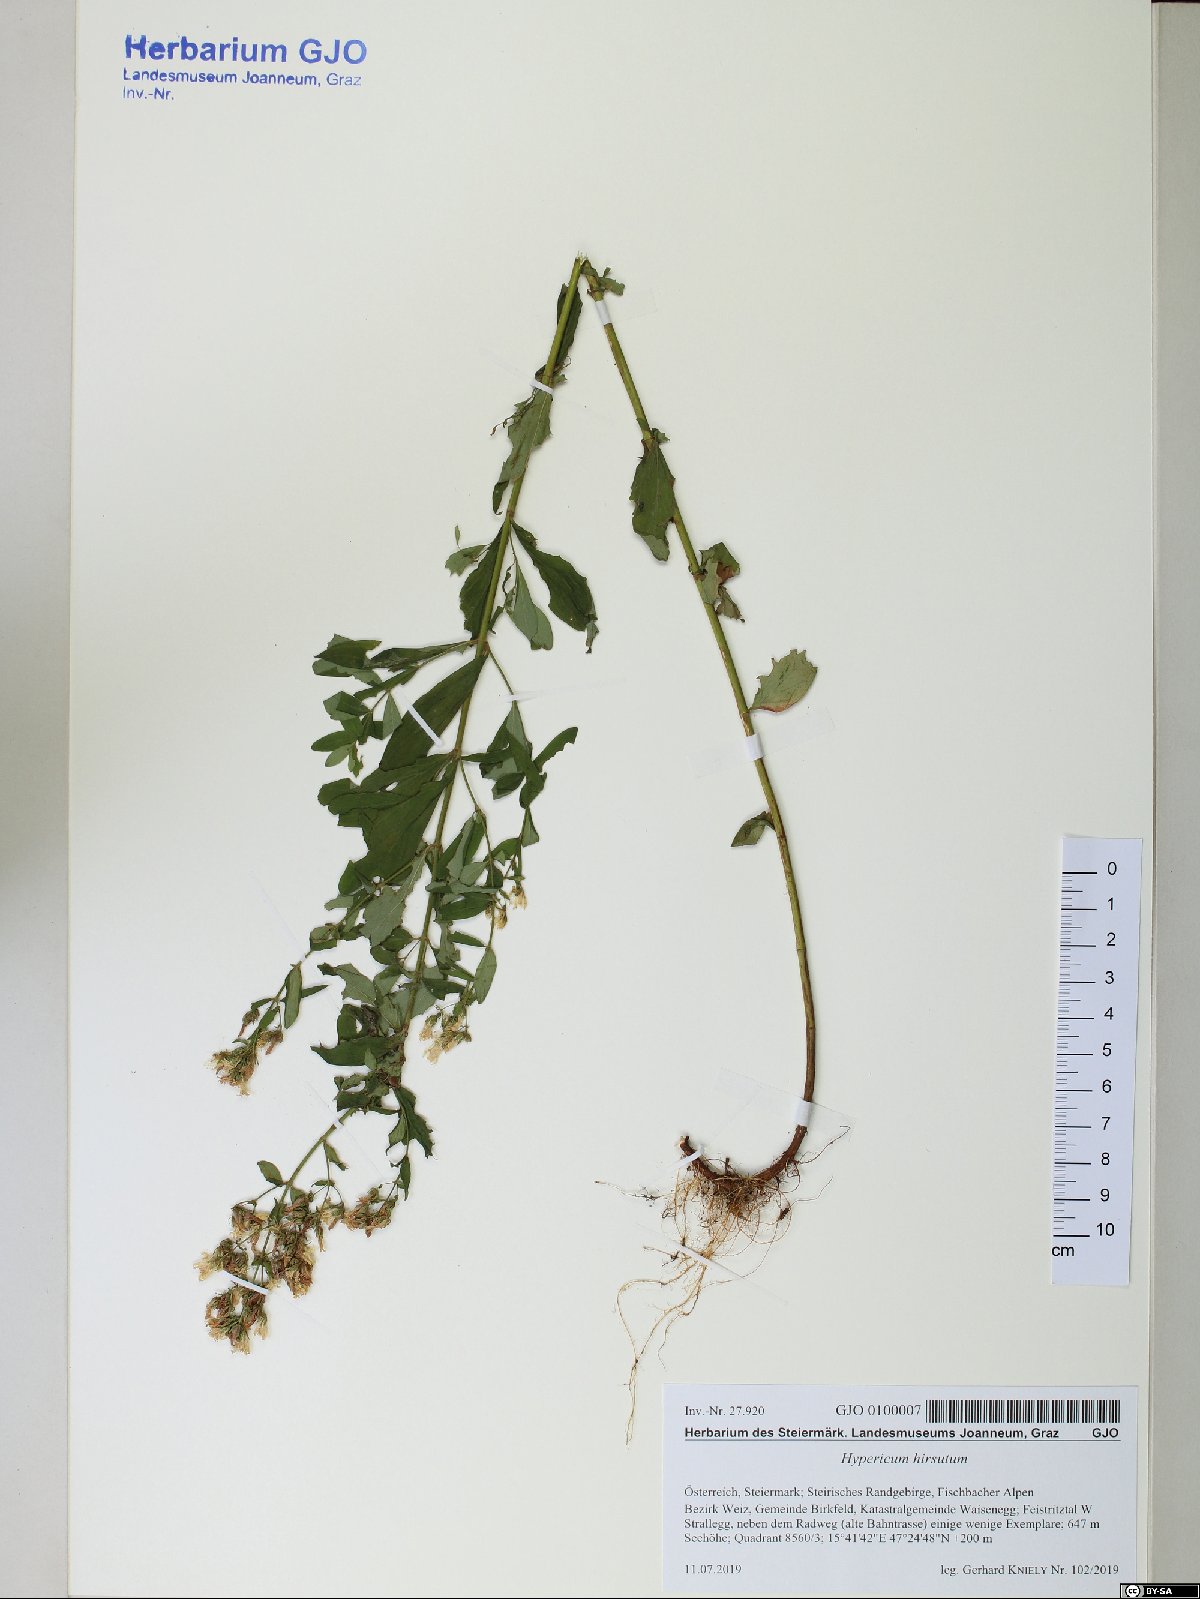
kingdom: Plantae
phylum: Tracheophyta
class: Magnoliopsida
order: Malpighiales
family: Hypericaceae
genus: Hypericum
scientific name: Hypericum hirsutum
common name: Hairy st. john's-wort
